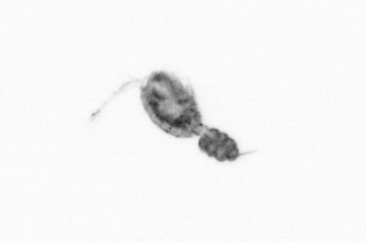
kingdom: Animalia
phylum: Arthropoda
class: Copepoda
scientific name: Copepoda
